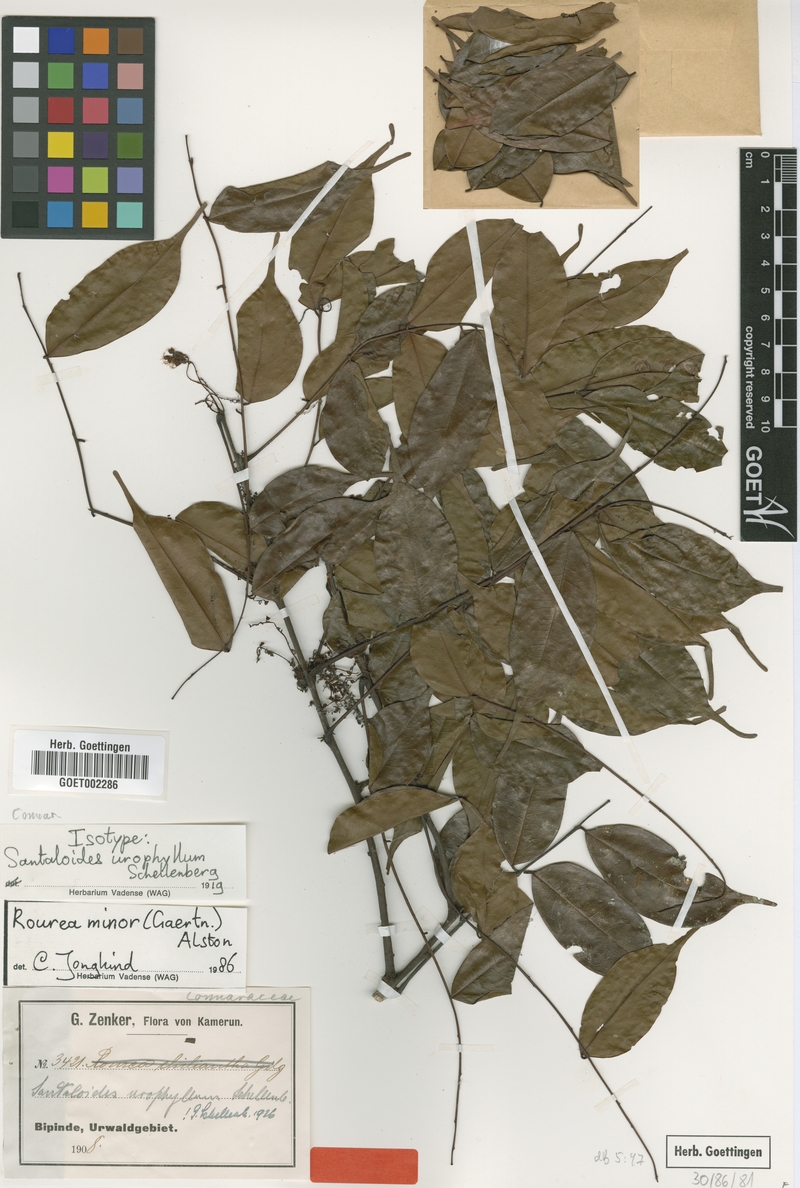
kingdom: Plantae
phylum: Tracheophyta
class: Magnoliopsida
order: Oxalidales
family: Connaraceae
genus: Rourea
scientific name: Rourea minor
